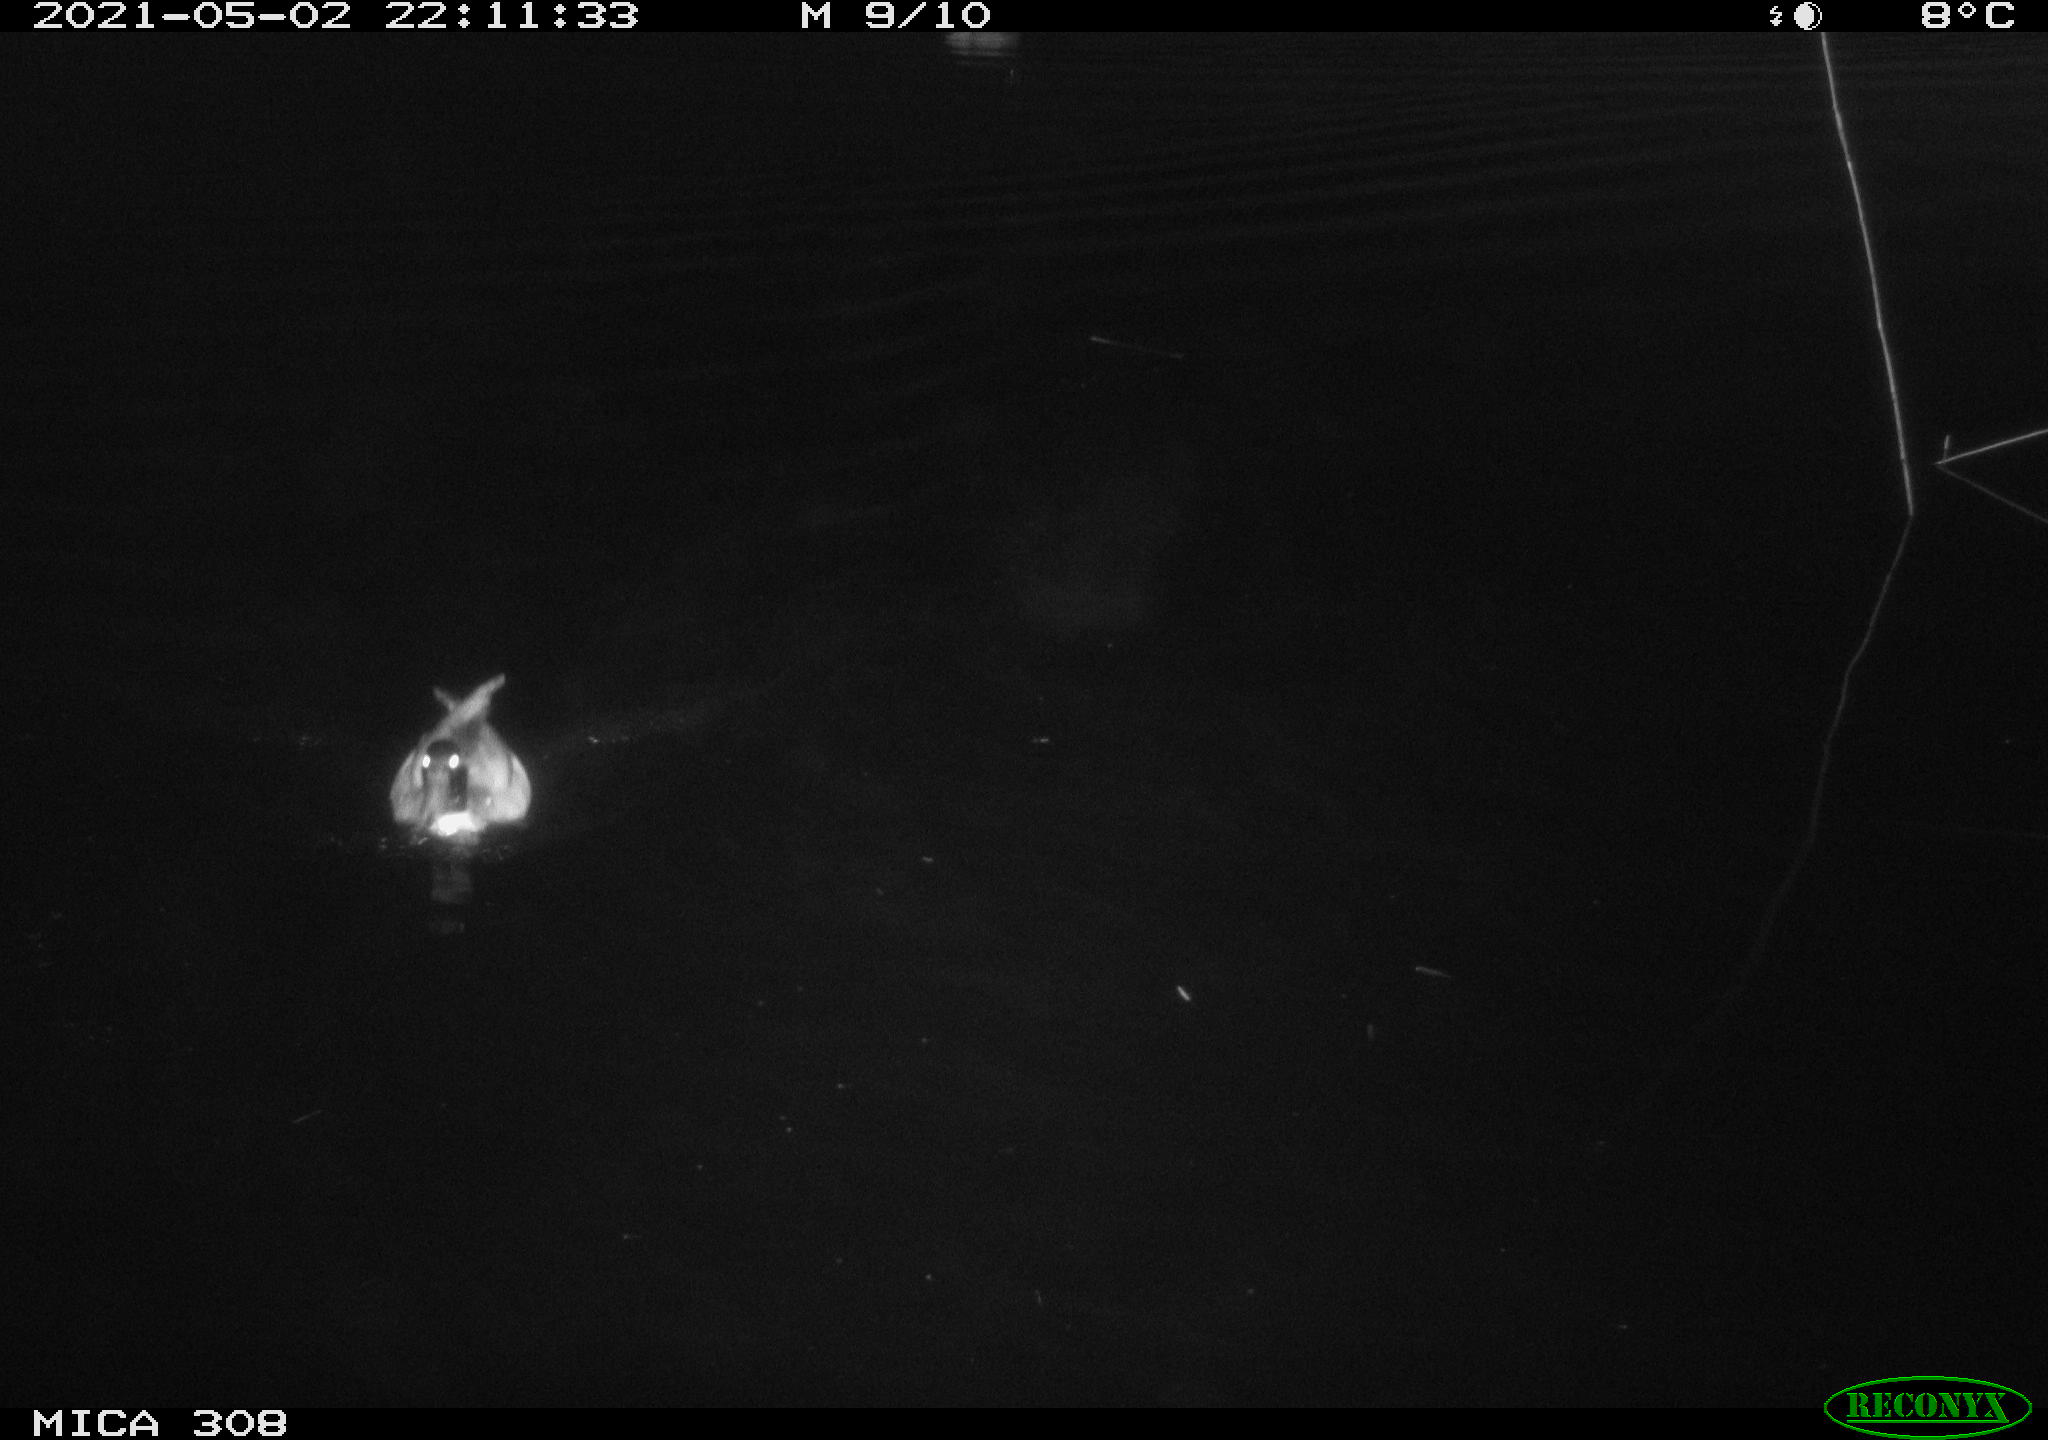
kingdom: Animalia
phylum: Chordata
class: Mammalia
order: Rodentia
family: Cricetidae
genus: Ondatra
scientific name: Ondatra zibethicus
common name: Muskrat
